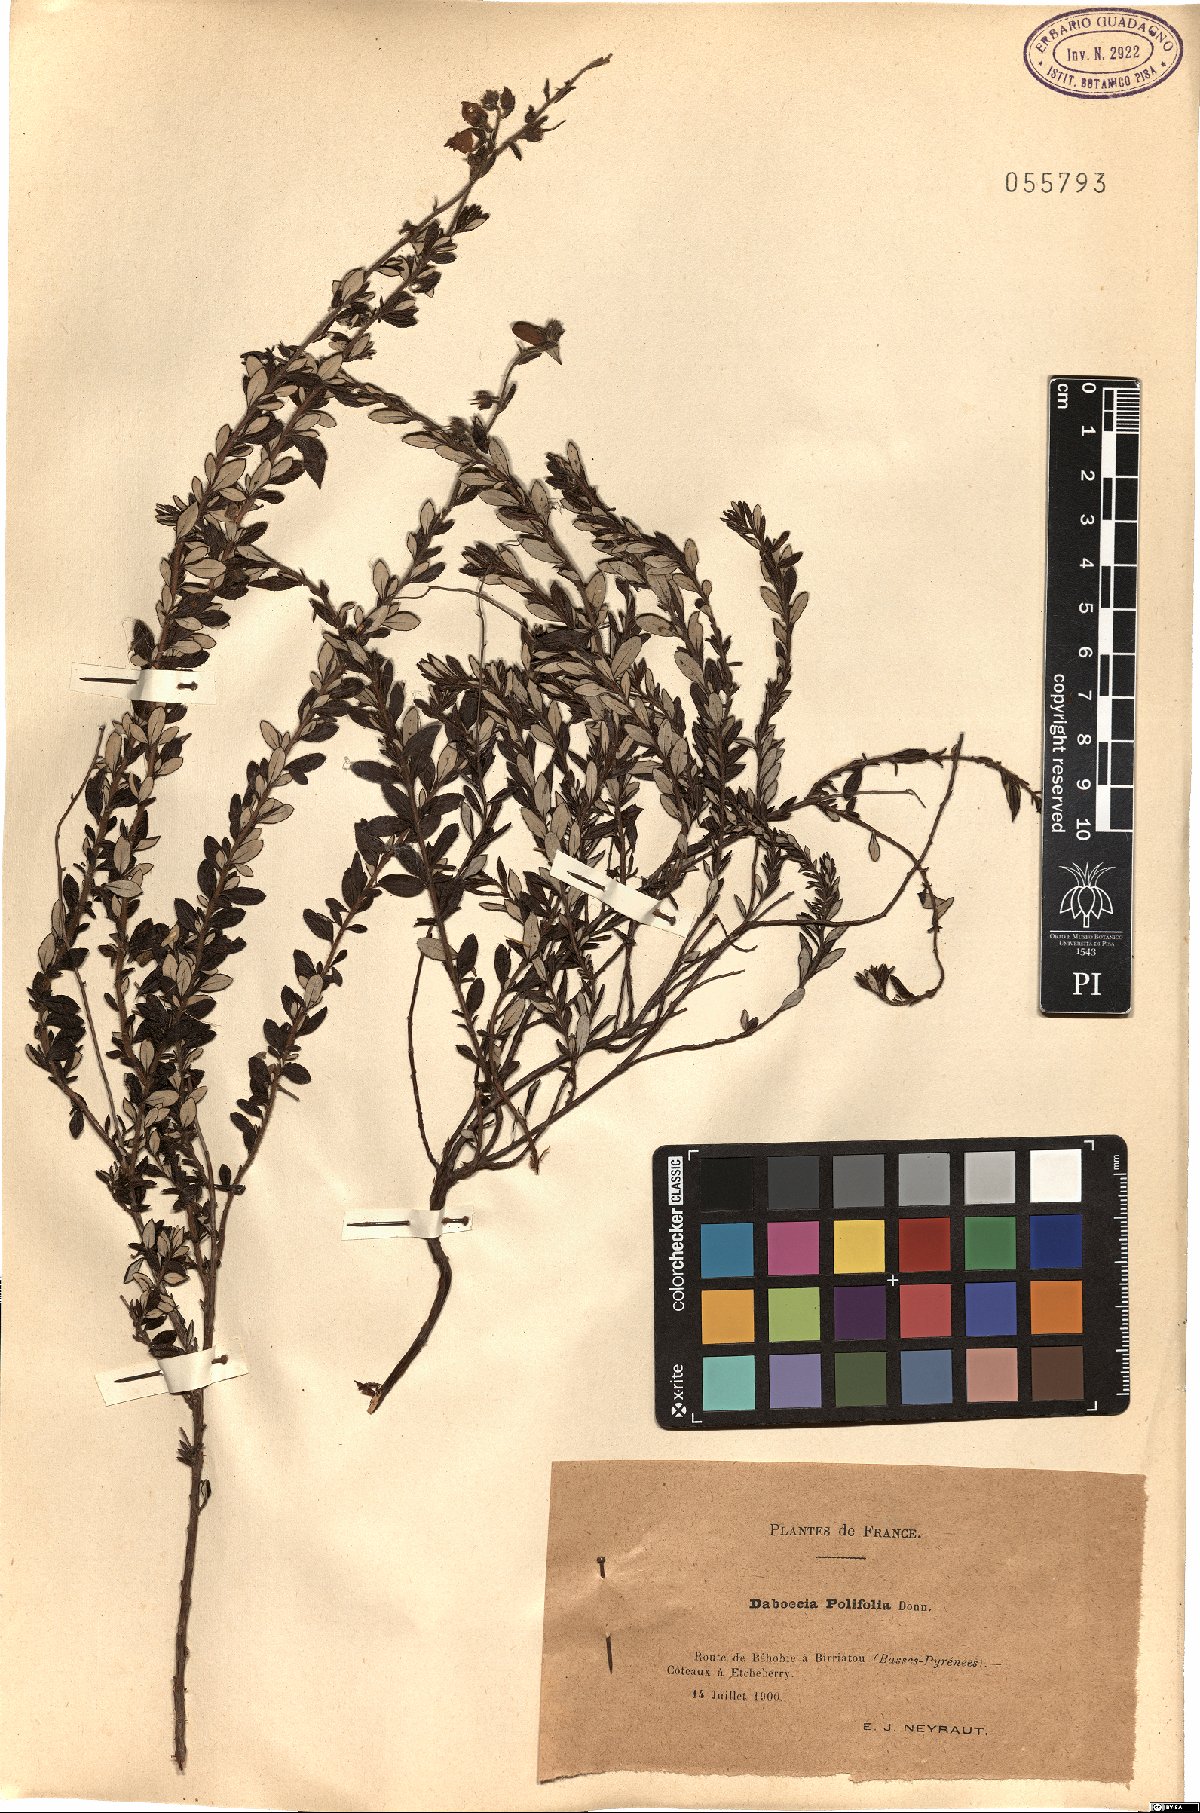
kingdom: Plantae
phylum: Tracheophyta
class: Magnoliopsida
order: Ericales
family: Ericaceae
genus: Daboecia
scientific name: Daboecia cantabrica
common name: St. dabeoc's-heath
